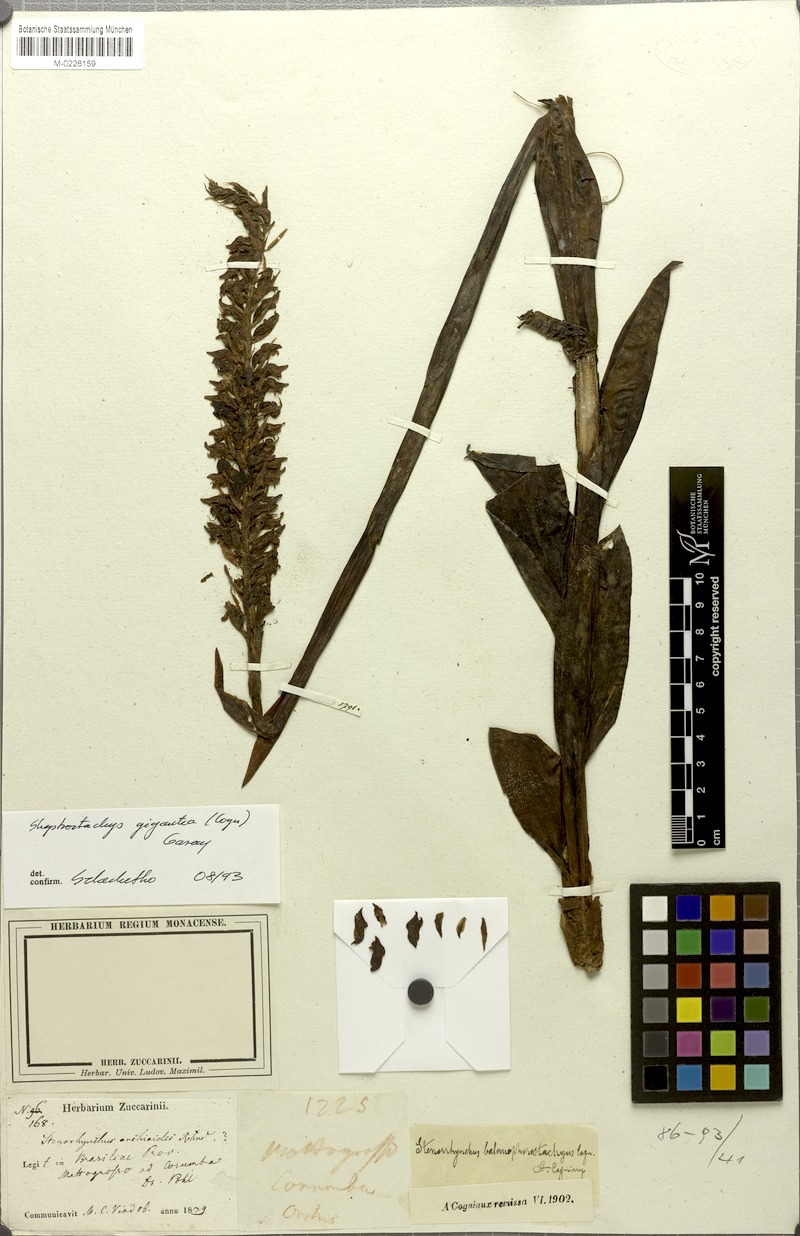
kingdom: Plantae
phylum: Tracheophyta
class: Liliopsida
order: Asparagales
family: Orchidaceae
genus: Skeptrostachys
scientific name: Skeptrostachys gigantea
